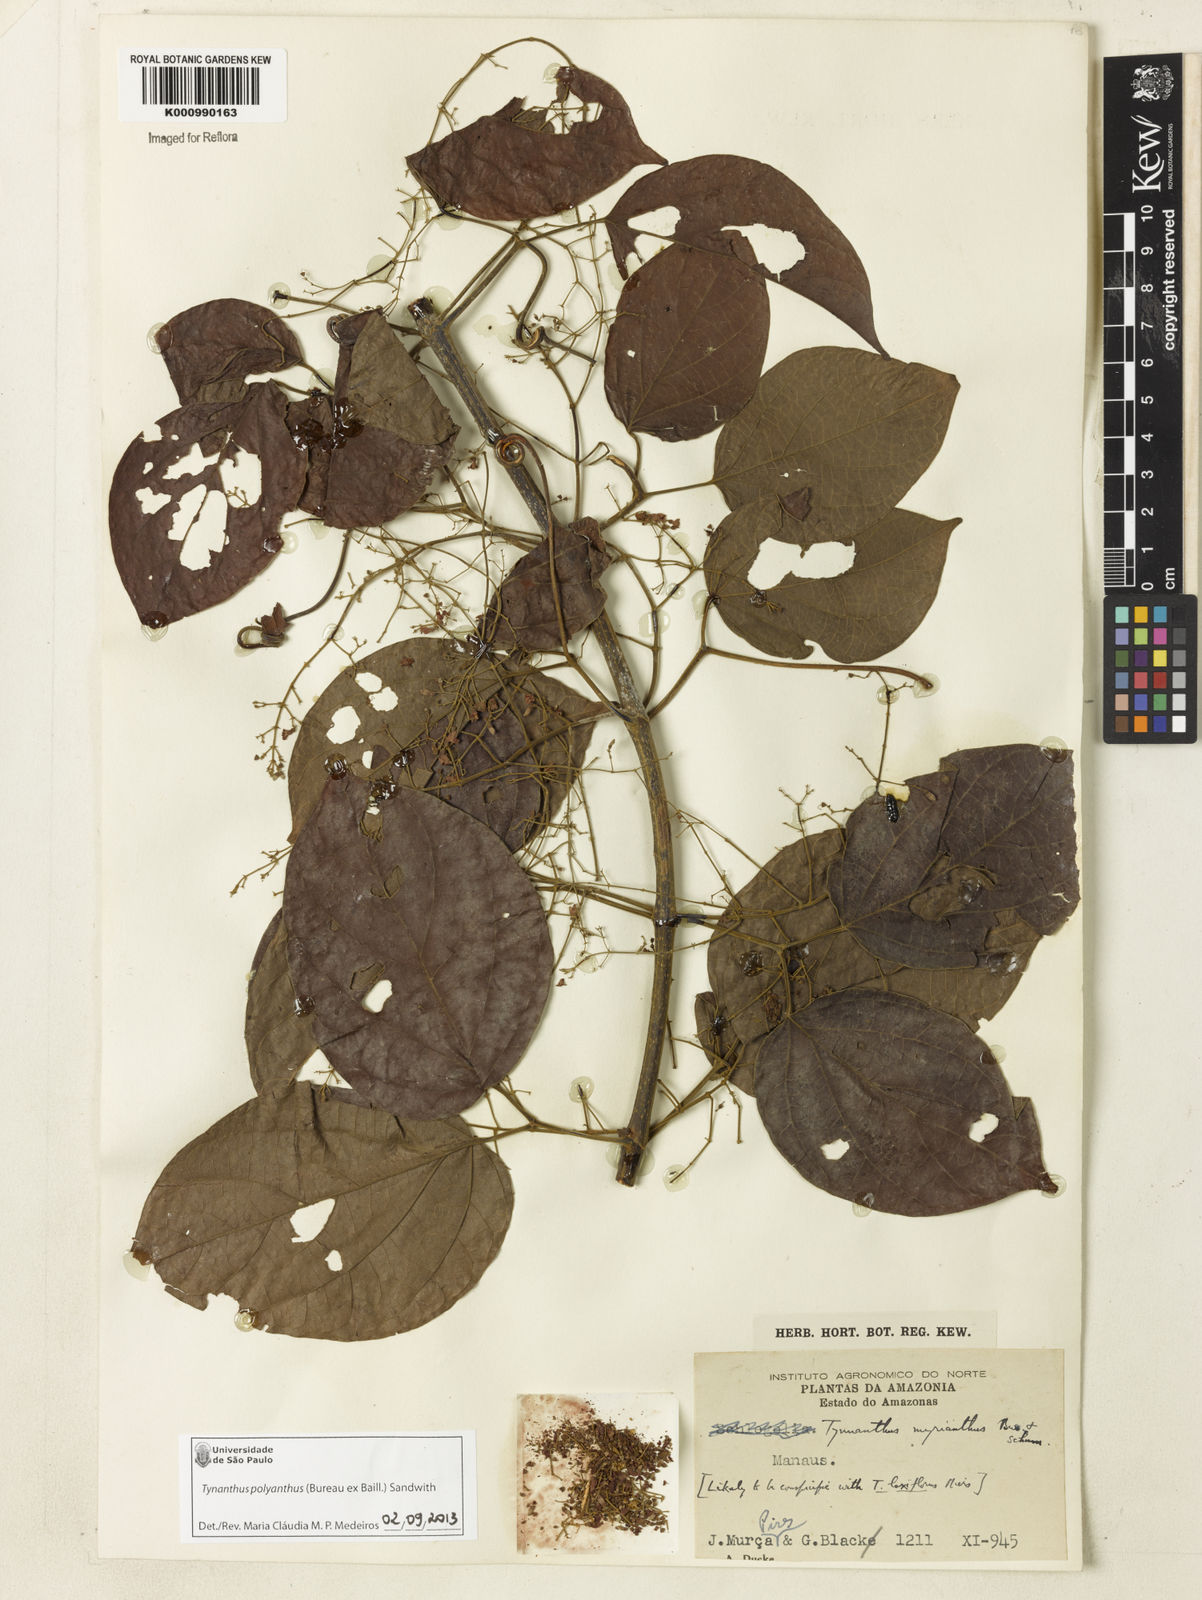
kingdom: Plantae
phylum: Tracheophyta
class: Magnoliopsida
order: Lamiales
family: Bignoniaceae
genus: Tynanthus
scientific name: Tynanthus polyanthus
